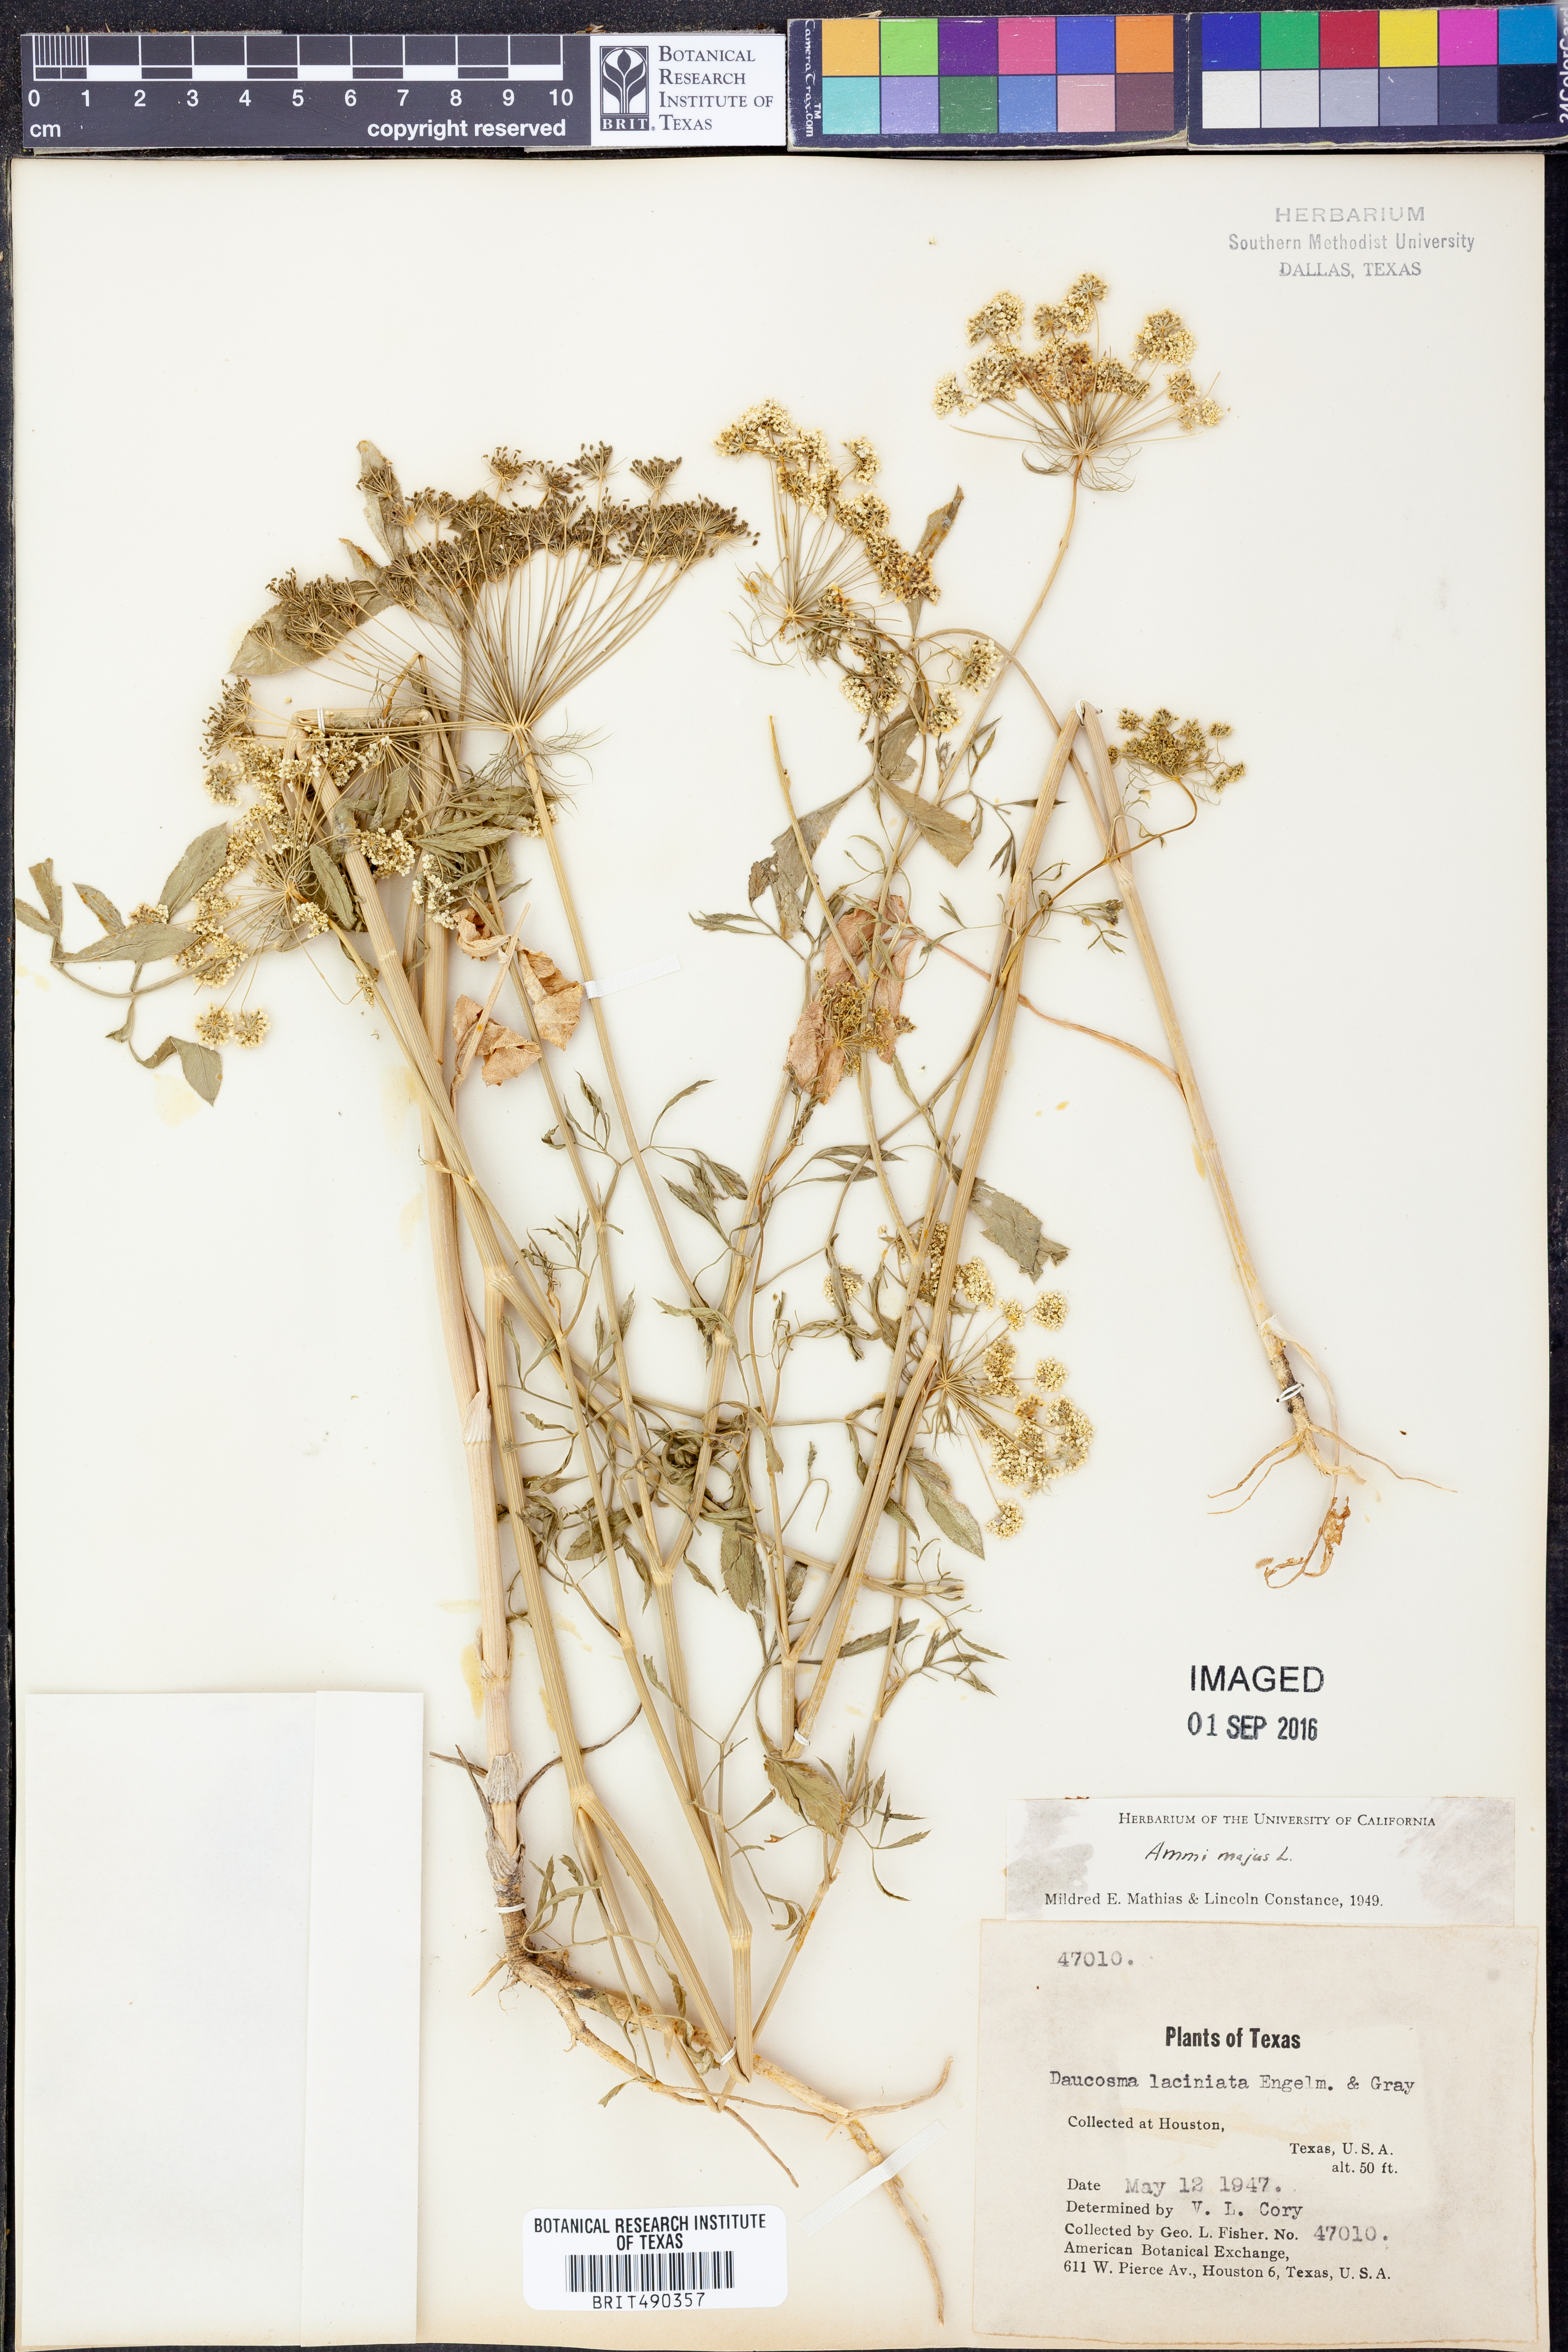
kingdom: Plantae
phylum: Tracheophyta
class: Magnoliopsida
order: Apiales
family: Apiaceae
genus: Ammi
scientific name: Ammi majus
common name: Bullwort
